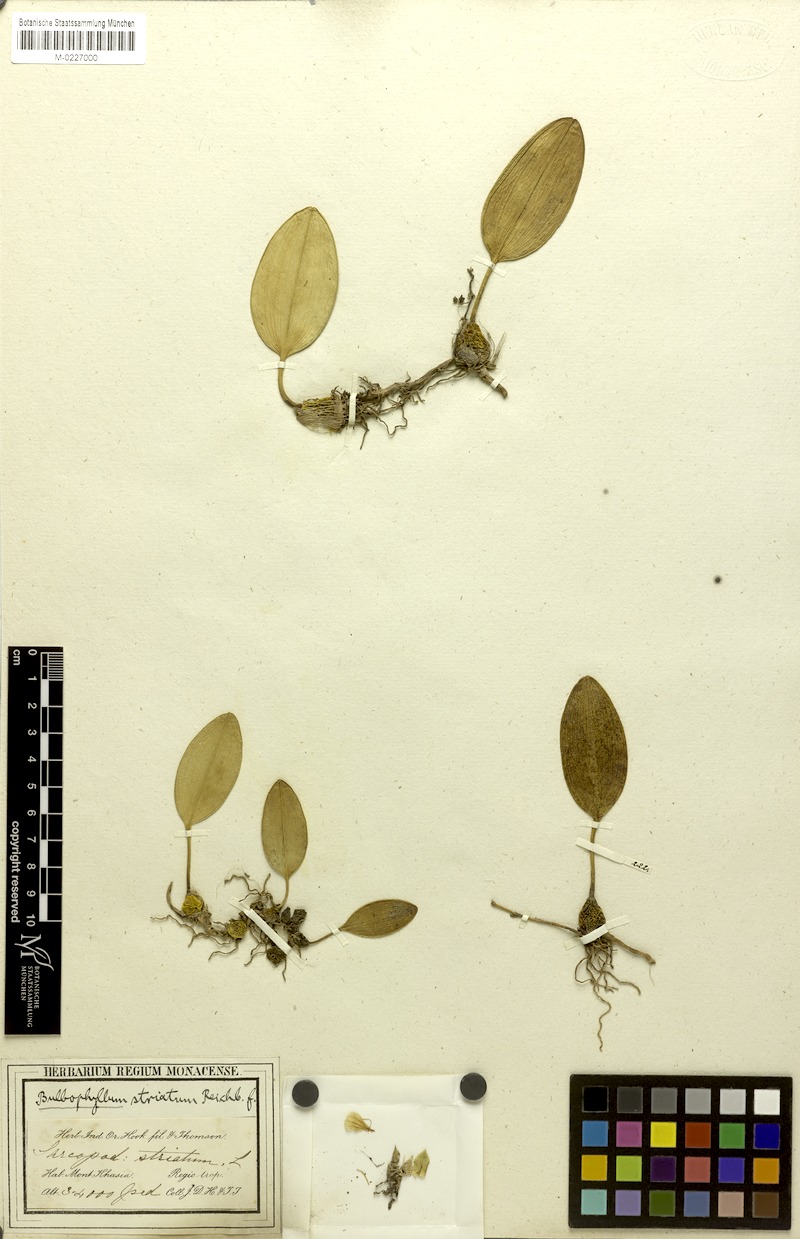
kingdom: Plantae
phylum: Tracheophyta
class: Liliopsida
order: Asparagales
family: Orchidaceae
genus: Bulbophyllum
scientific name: Bulbophyllum striatum
